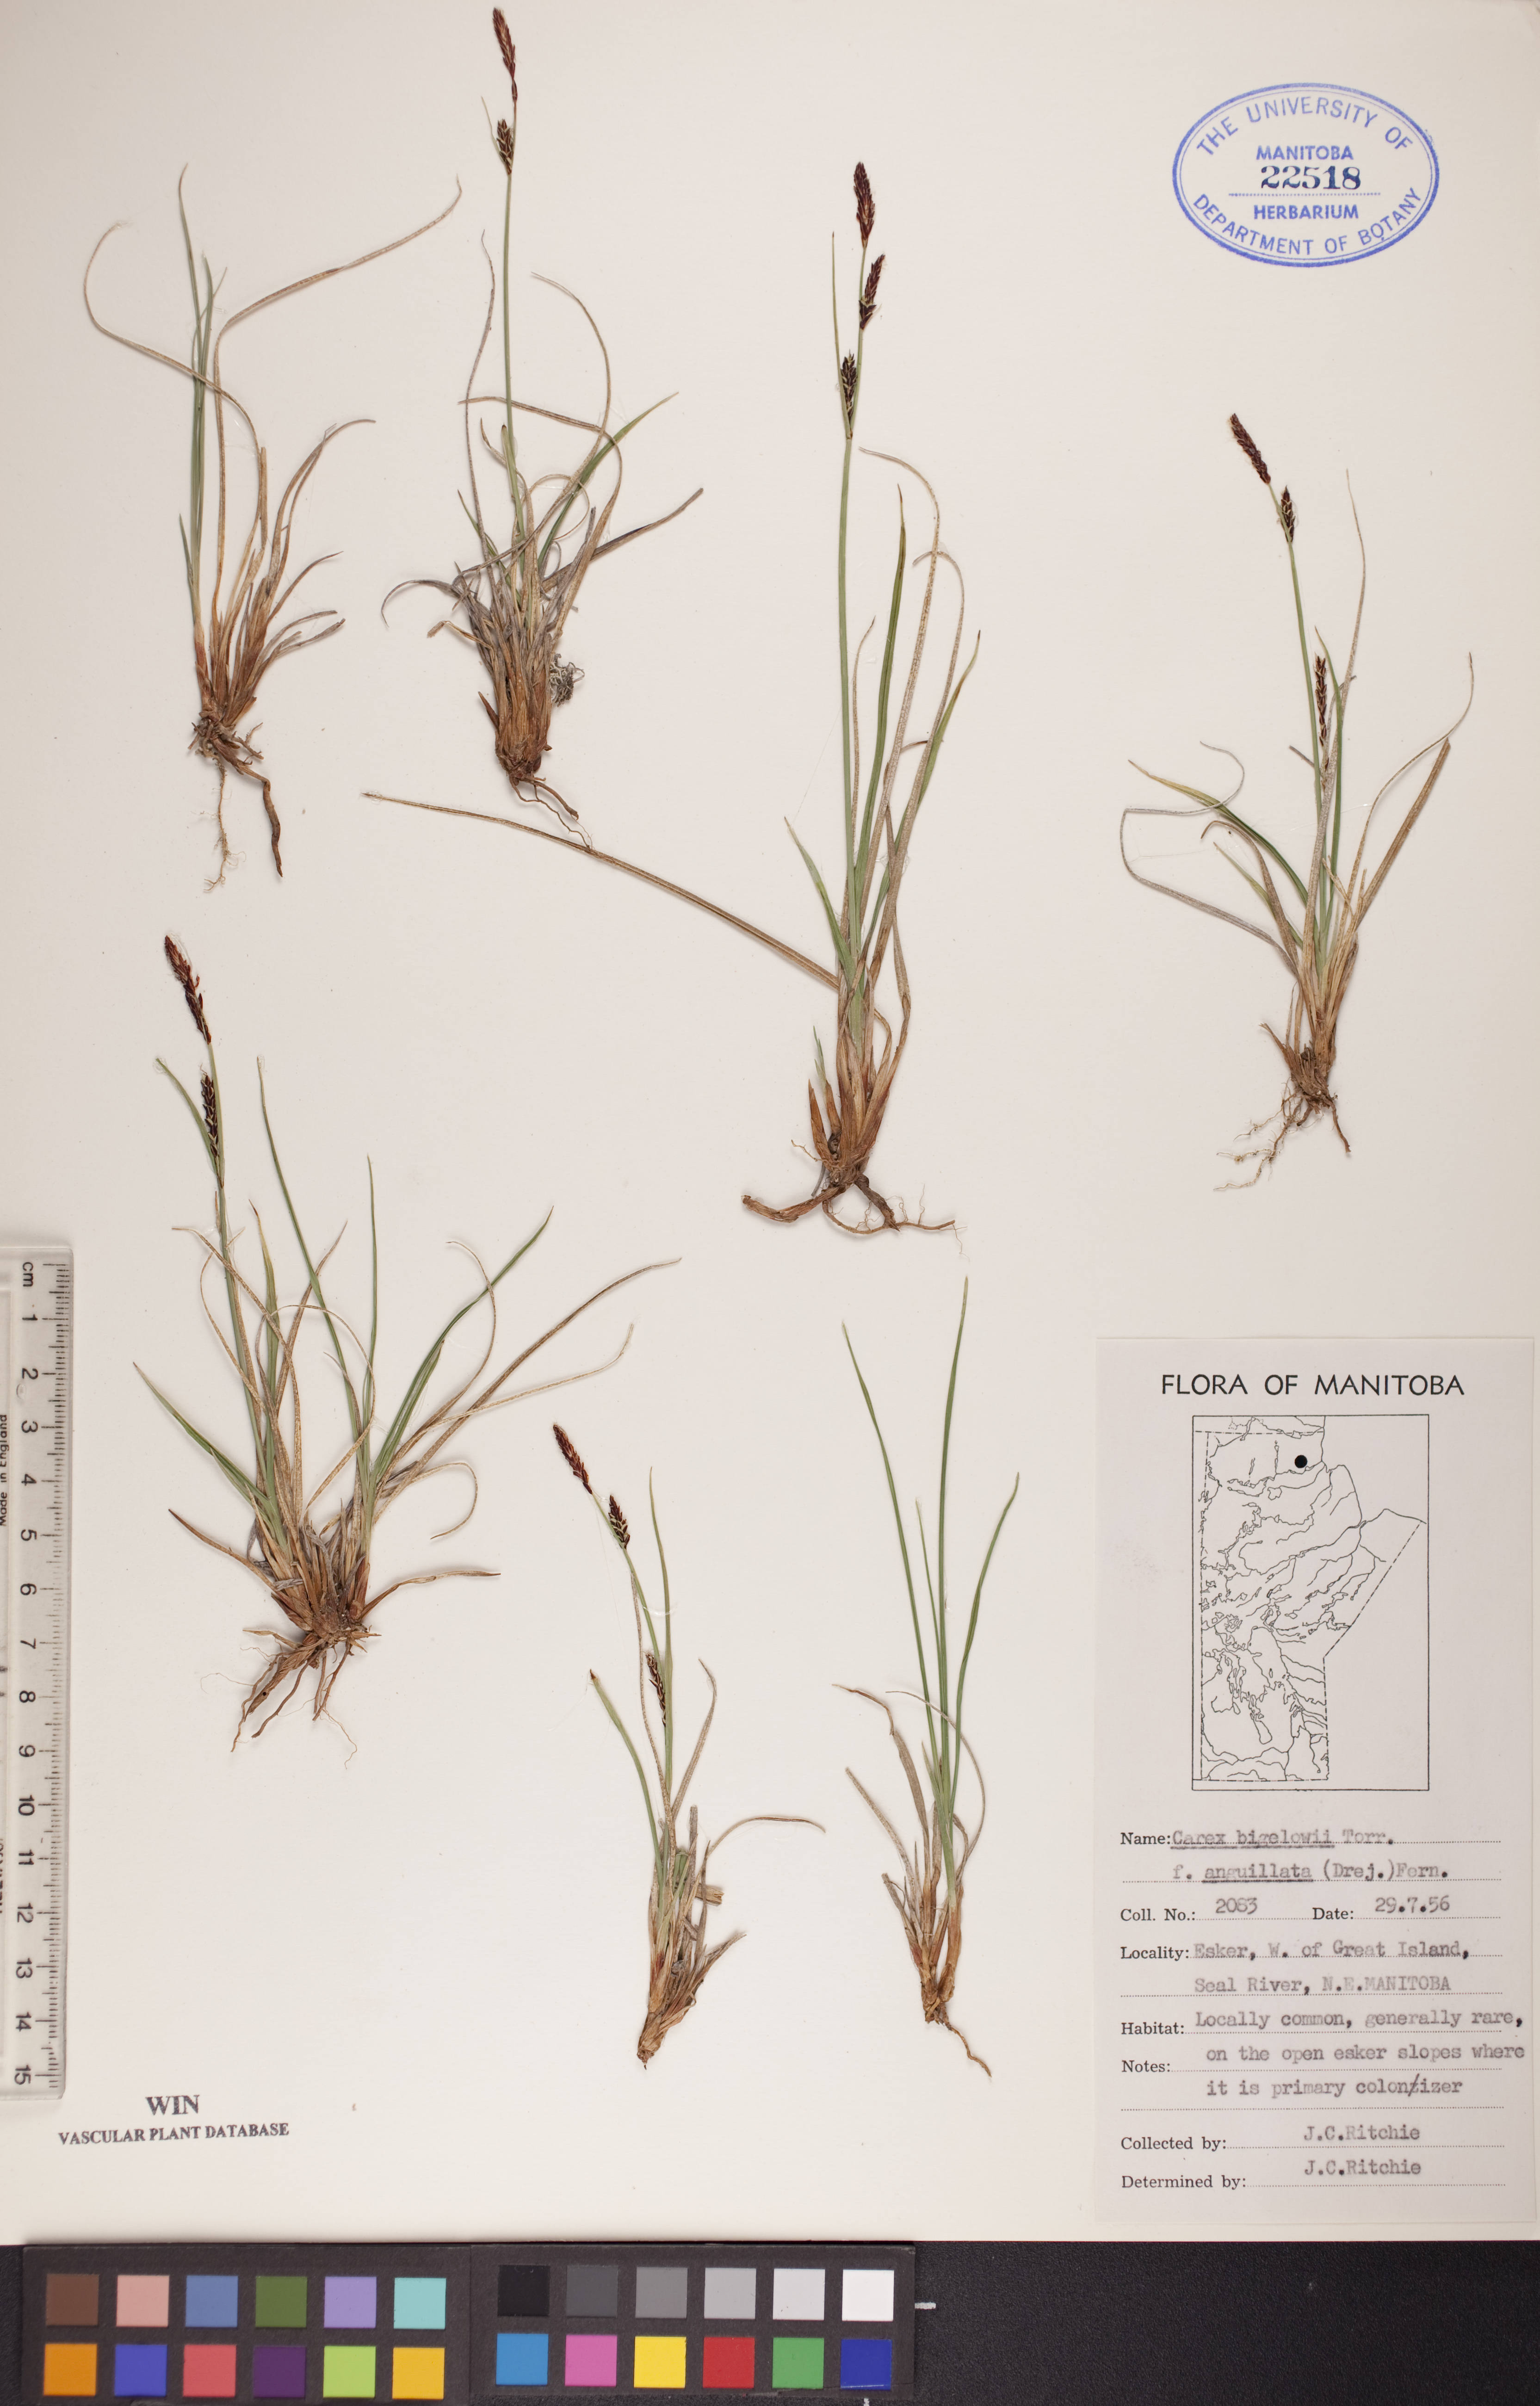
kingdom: Plantae
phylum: Tracheophyta
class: Liliopsida
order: Poales
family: Cyperaceae
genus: Carex
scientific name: Carex bigelowii
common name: Stiff sedge
